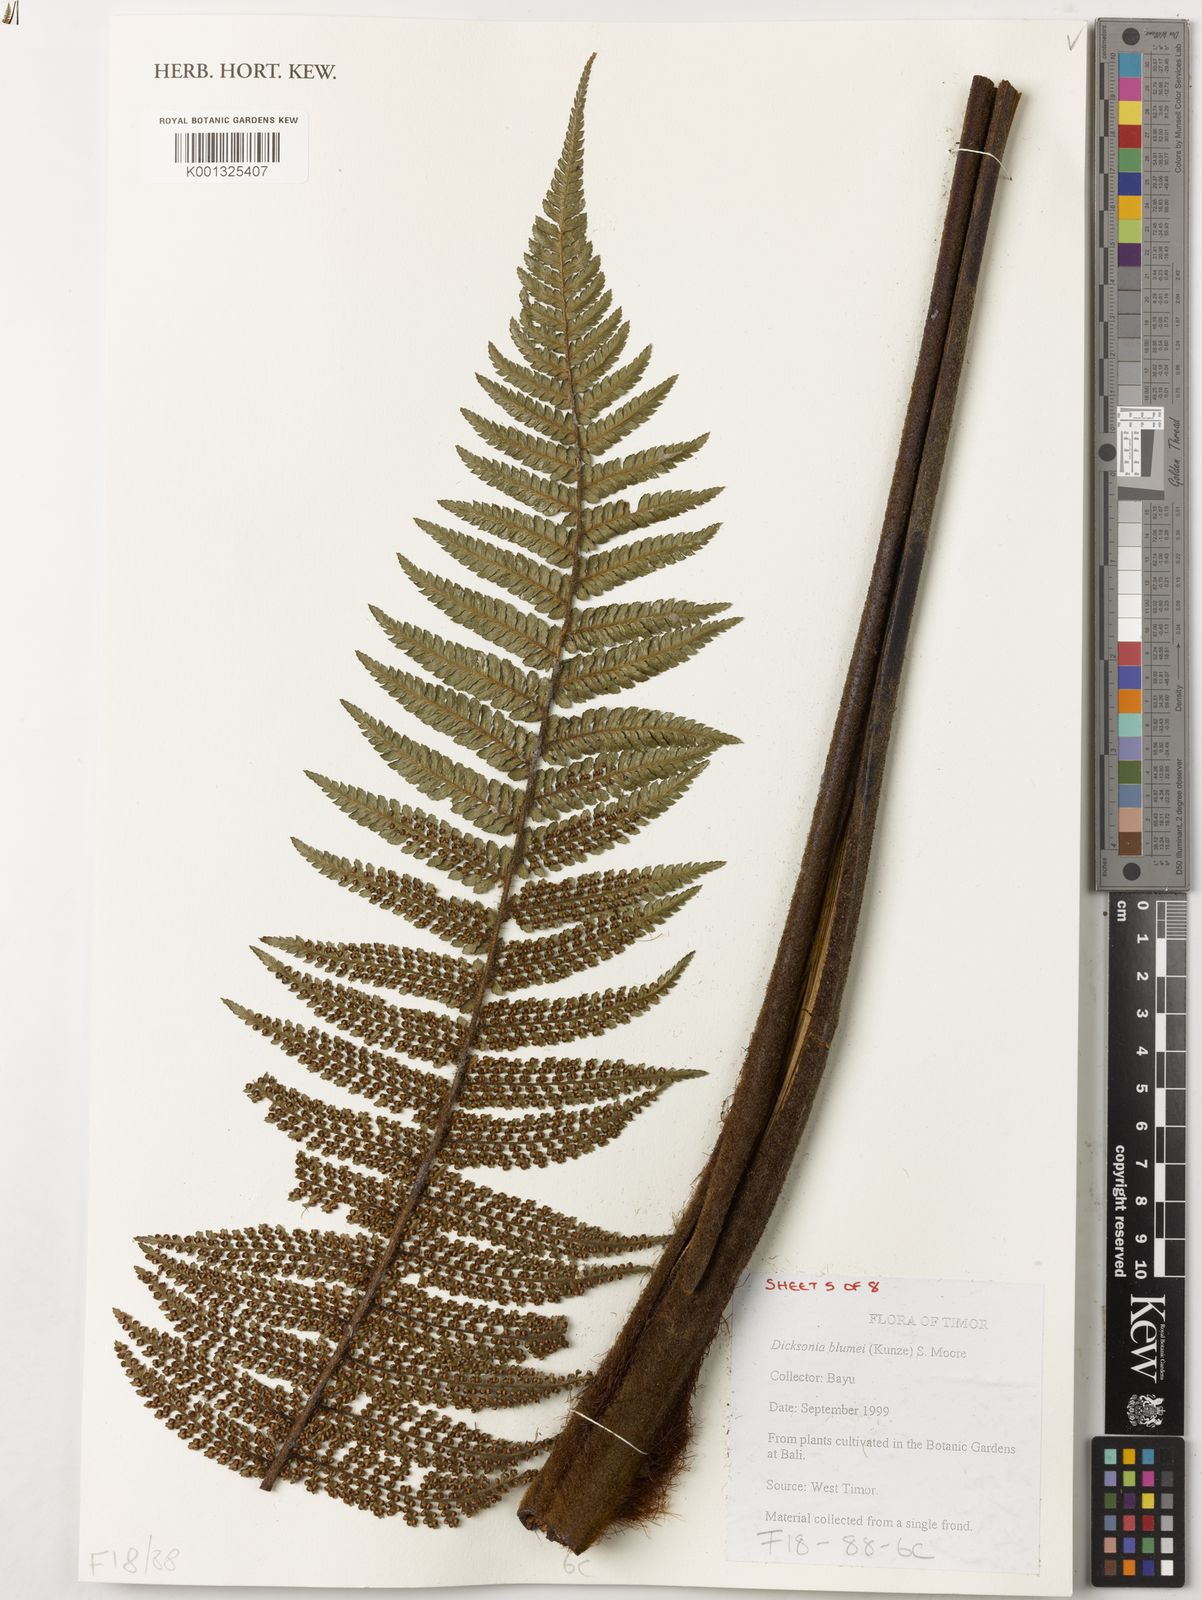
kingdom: Plantae
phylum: Tracheophyta
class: Polypodiopsida
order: Cyatheales
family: Dicksoniaceae
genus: Dicksonia
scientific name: Dicksonia
